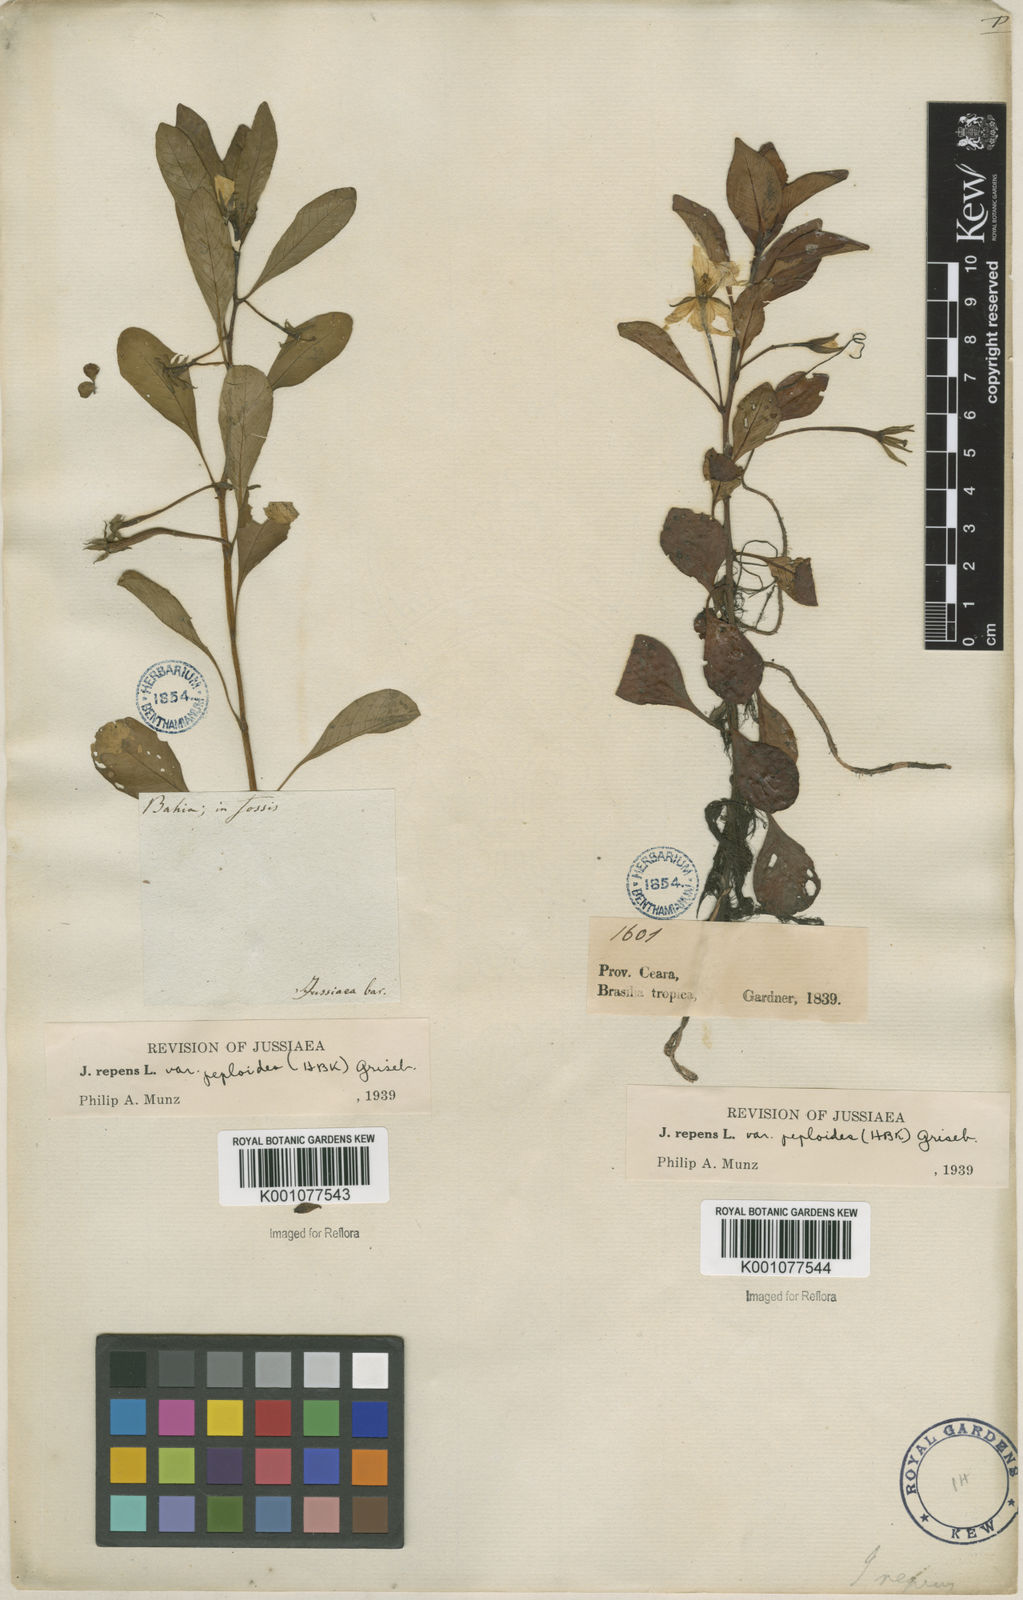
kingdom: Plantae
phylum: Tracheophyta
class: Magnoliopsida
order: Myrtales
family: Onagraceae
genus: Ludwigia
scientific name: Ludwigia adscendens
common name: Creeping water primrose
